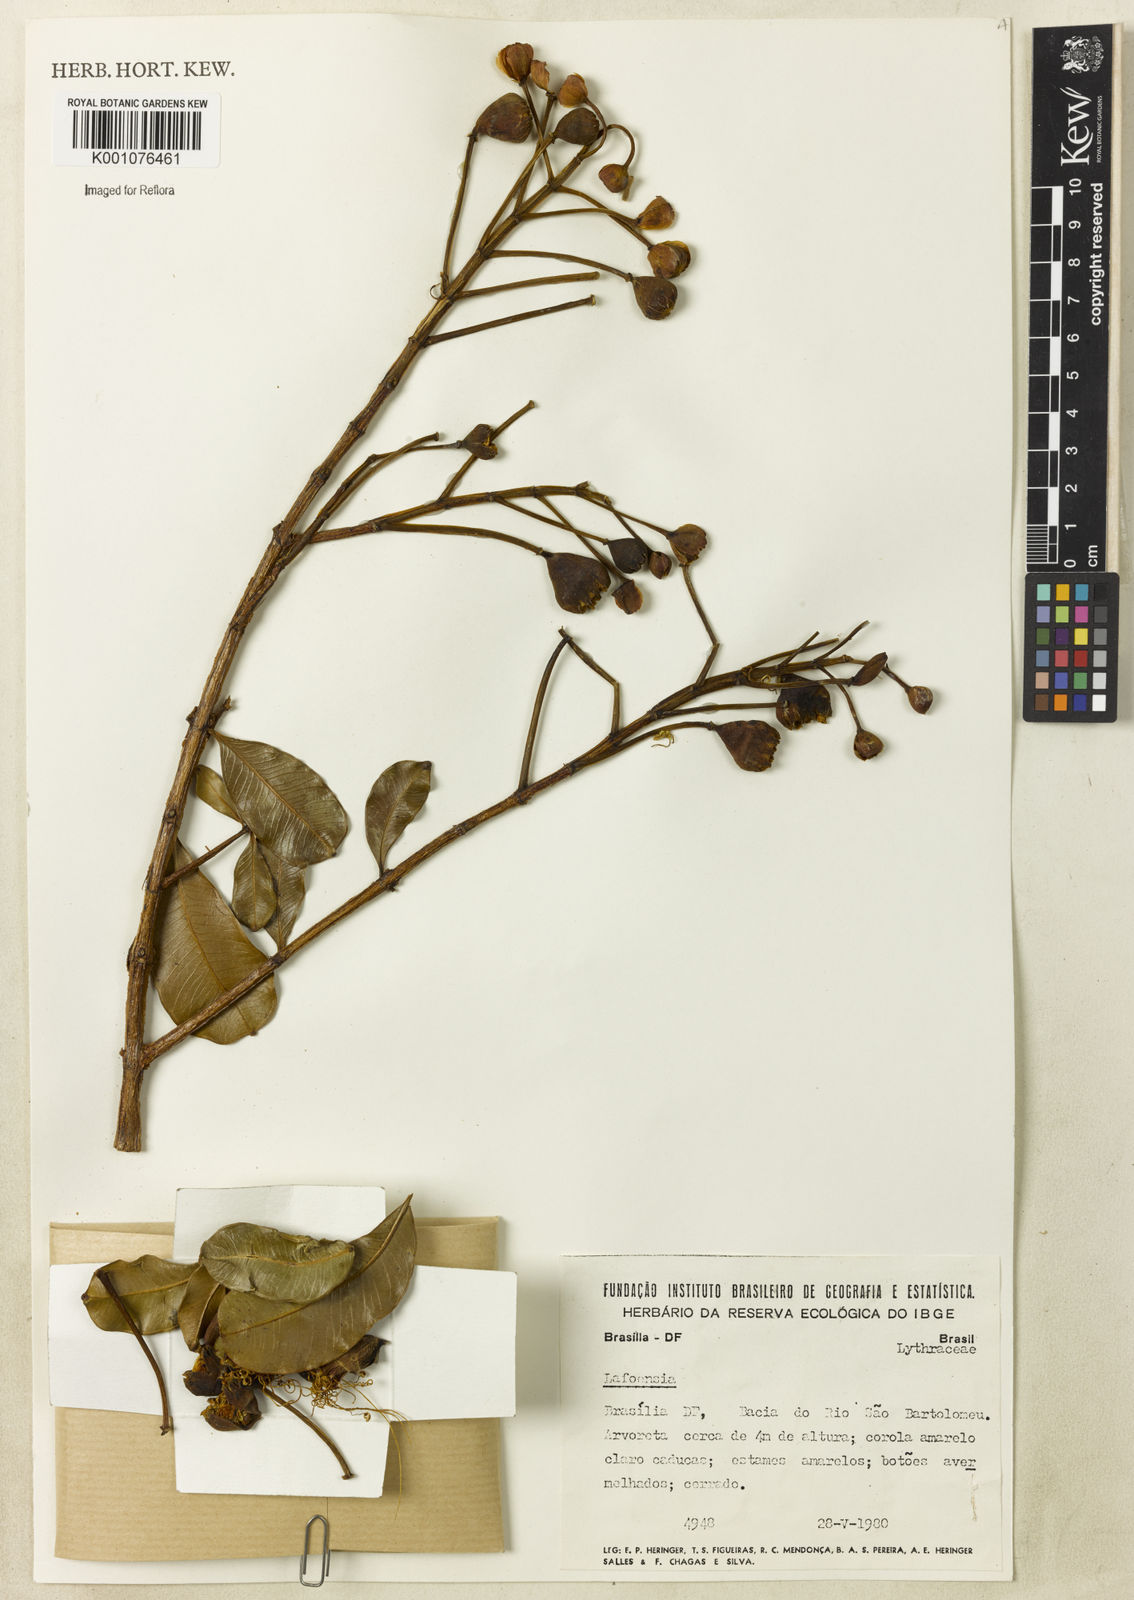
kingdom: Plantae
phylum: Tracheophyta
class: Magnoliopsida
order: Myrtales
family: Lythraceae
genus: Lafoensia
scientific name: Lafoensia
